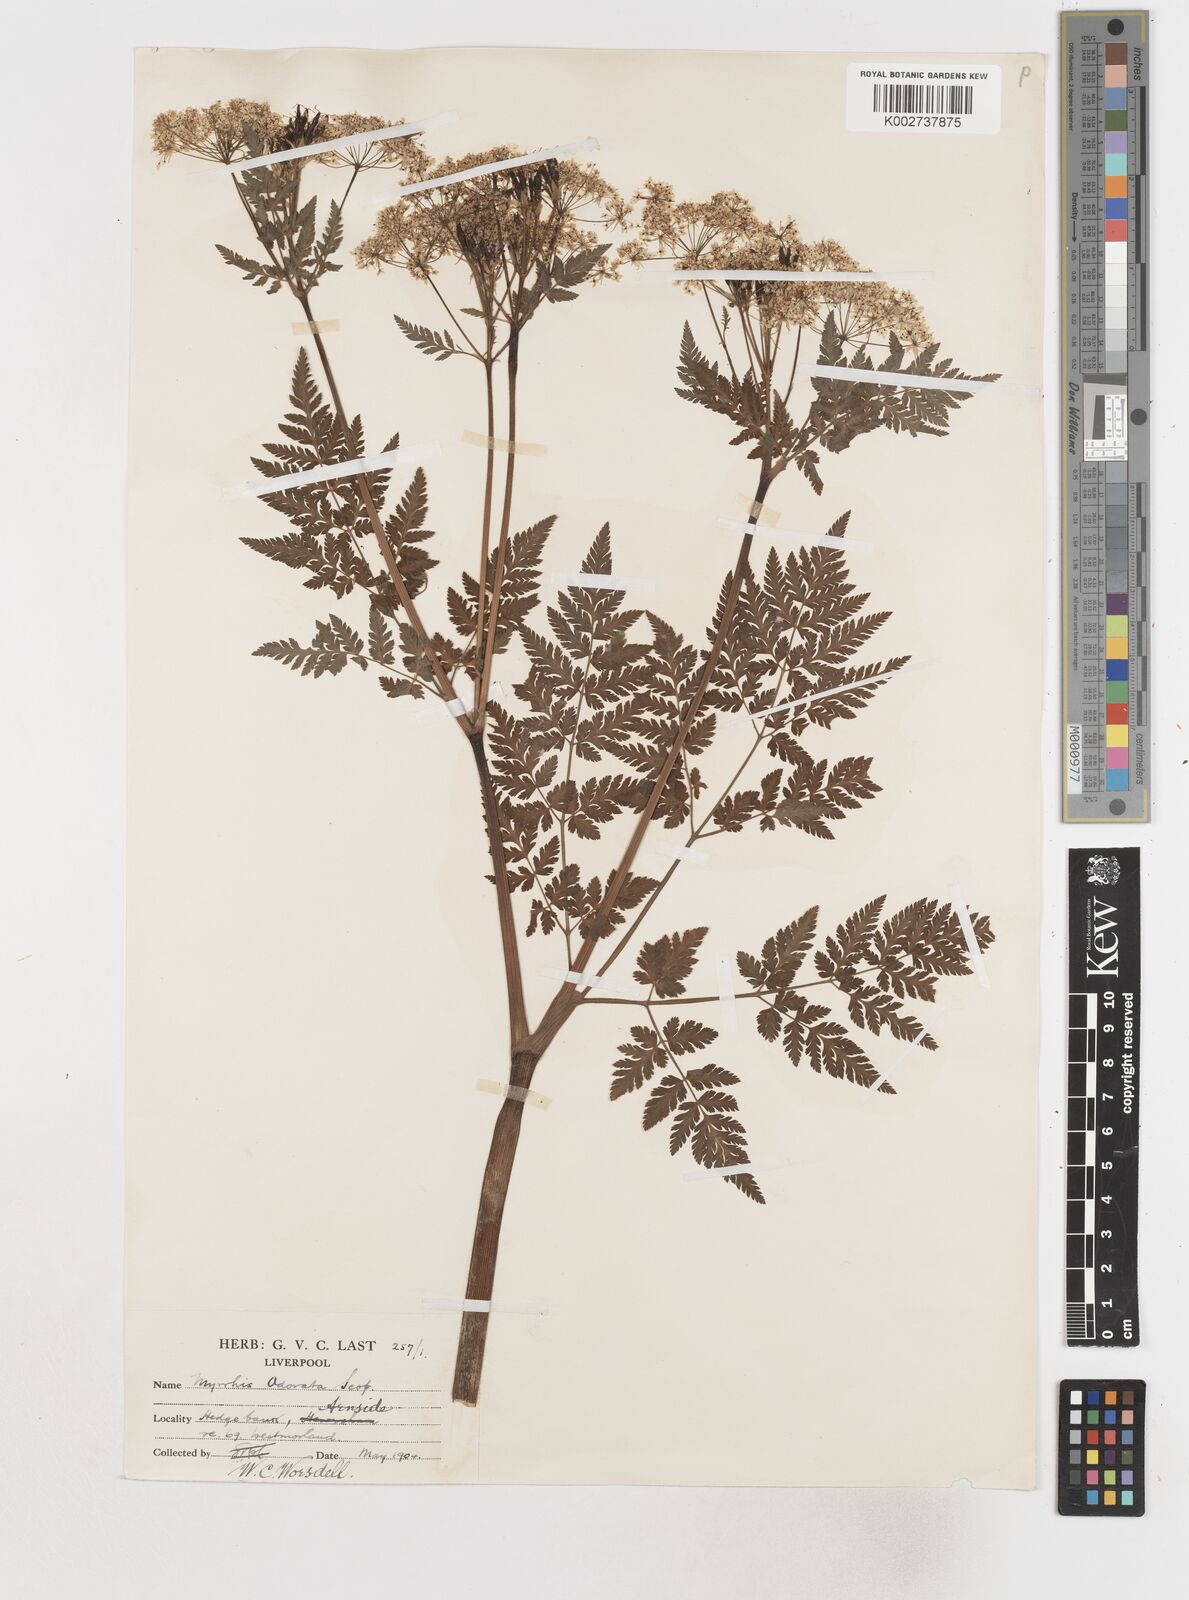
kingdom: Plantae
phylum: Tracheophyta
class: Magnoliopsida
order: Apiales
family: Apiaceae
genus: Myrrhis
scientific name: Myrrhis odorata
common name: Sweet cicely
